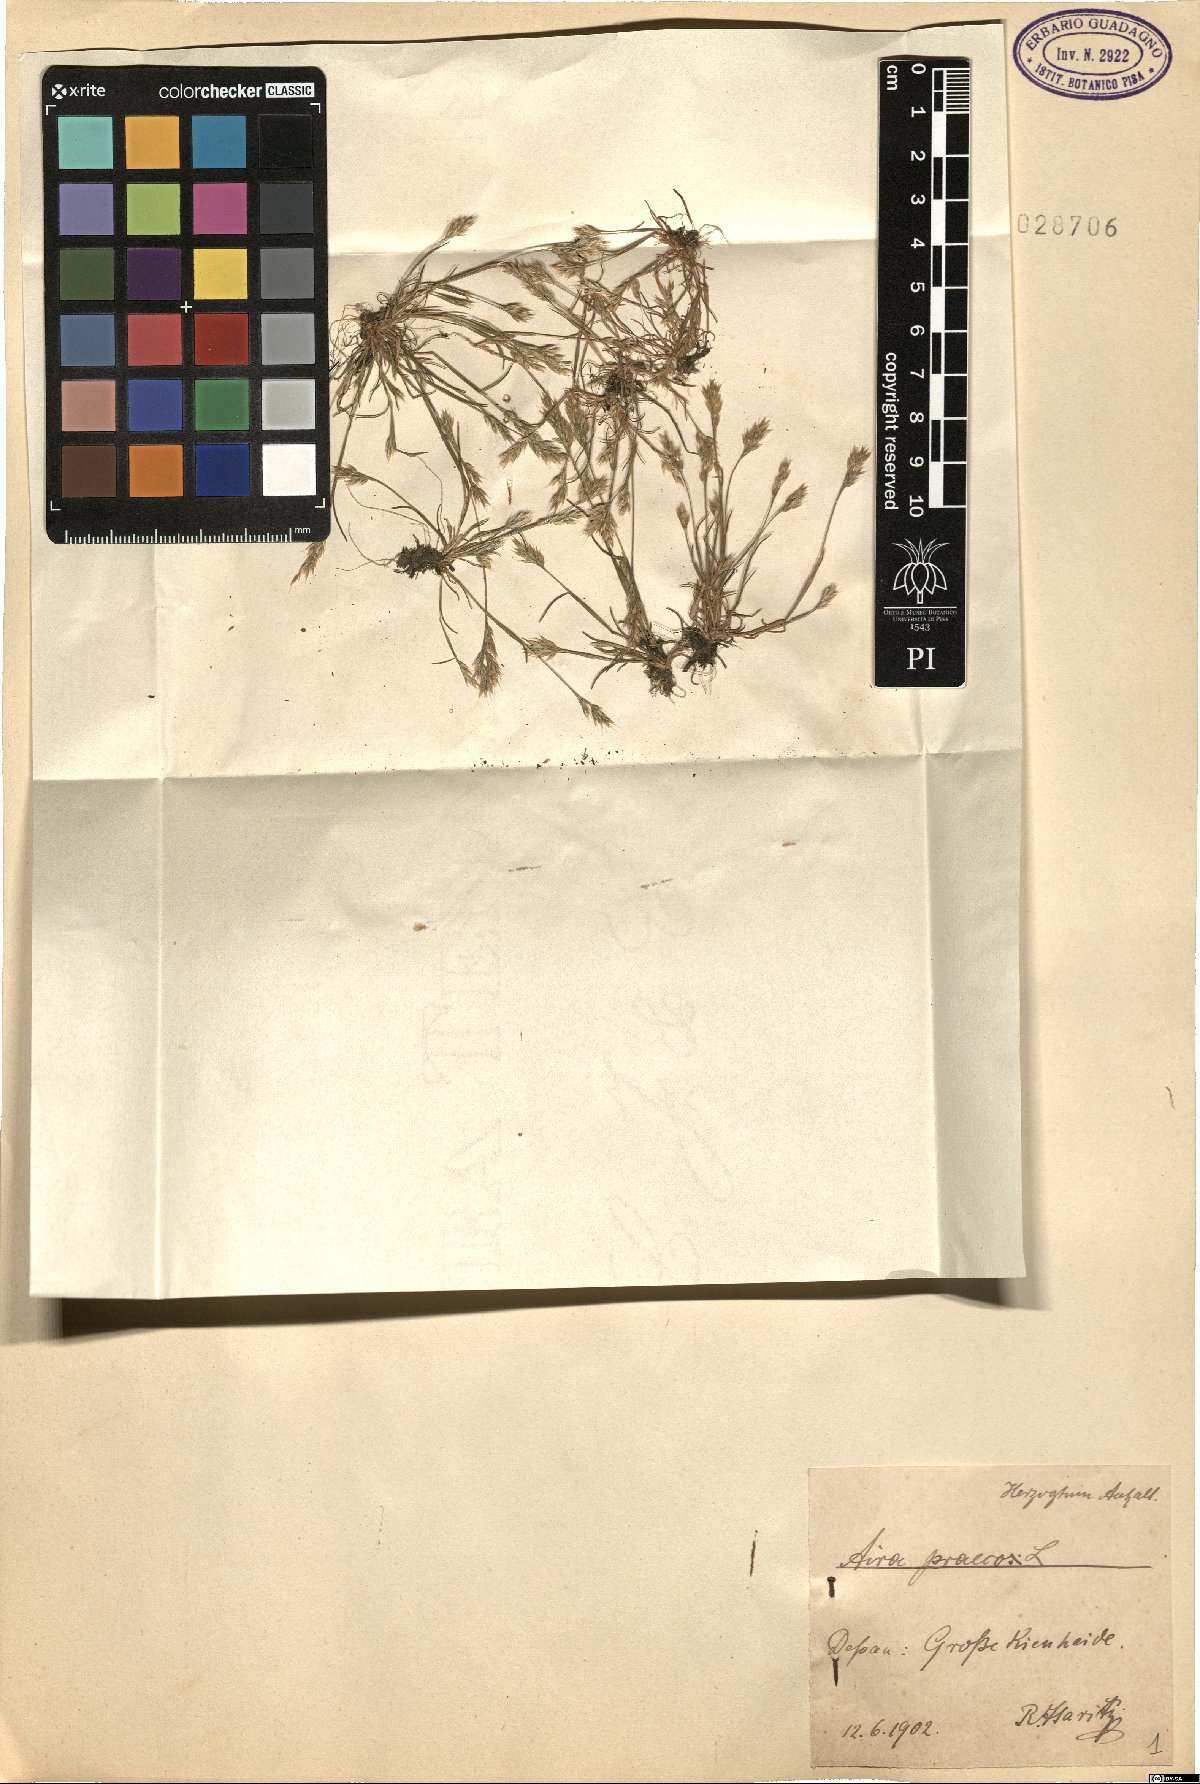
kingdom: Plantae
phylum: Tracheophyta
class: Liliopsida
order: Poales
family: Poaceae
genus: Aira
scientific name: Aira praecox
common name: Early hair-grass
